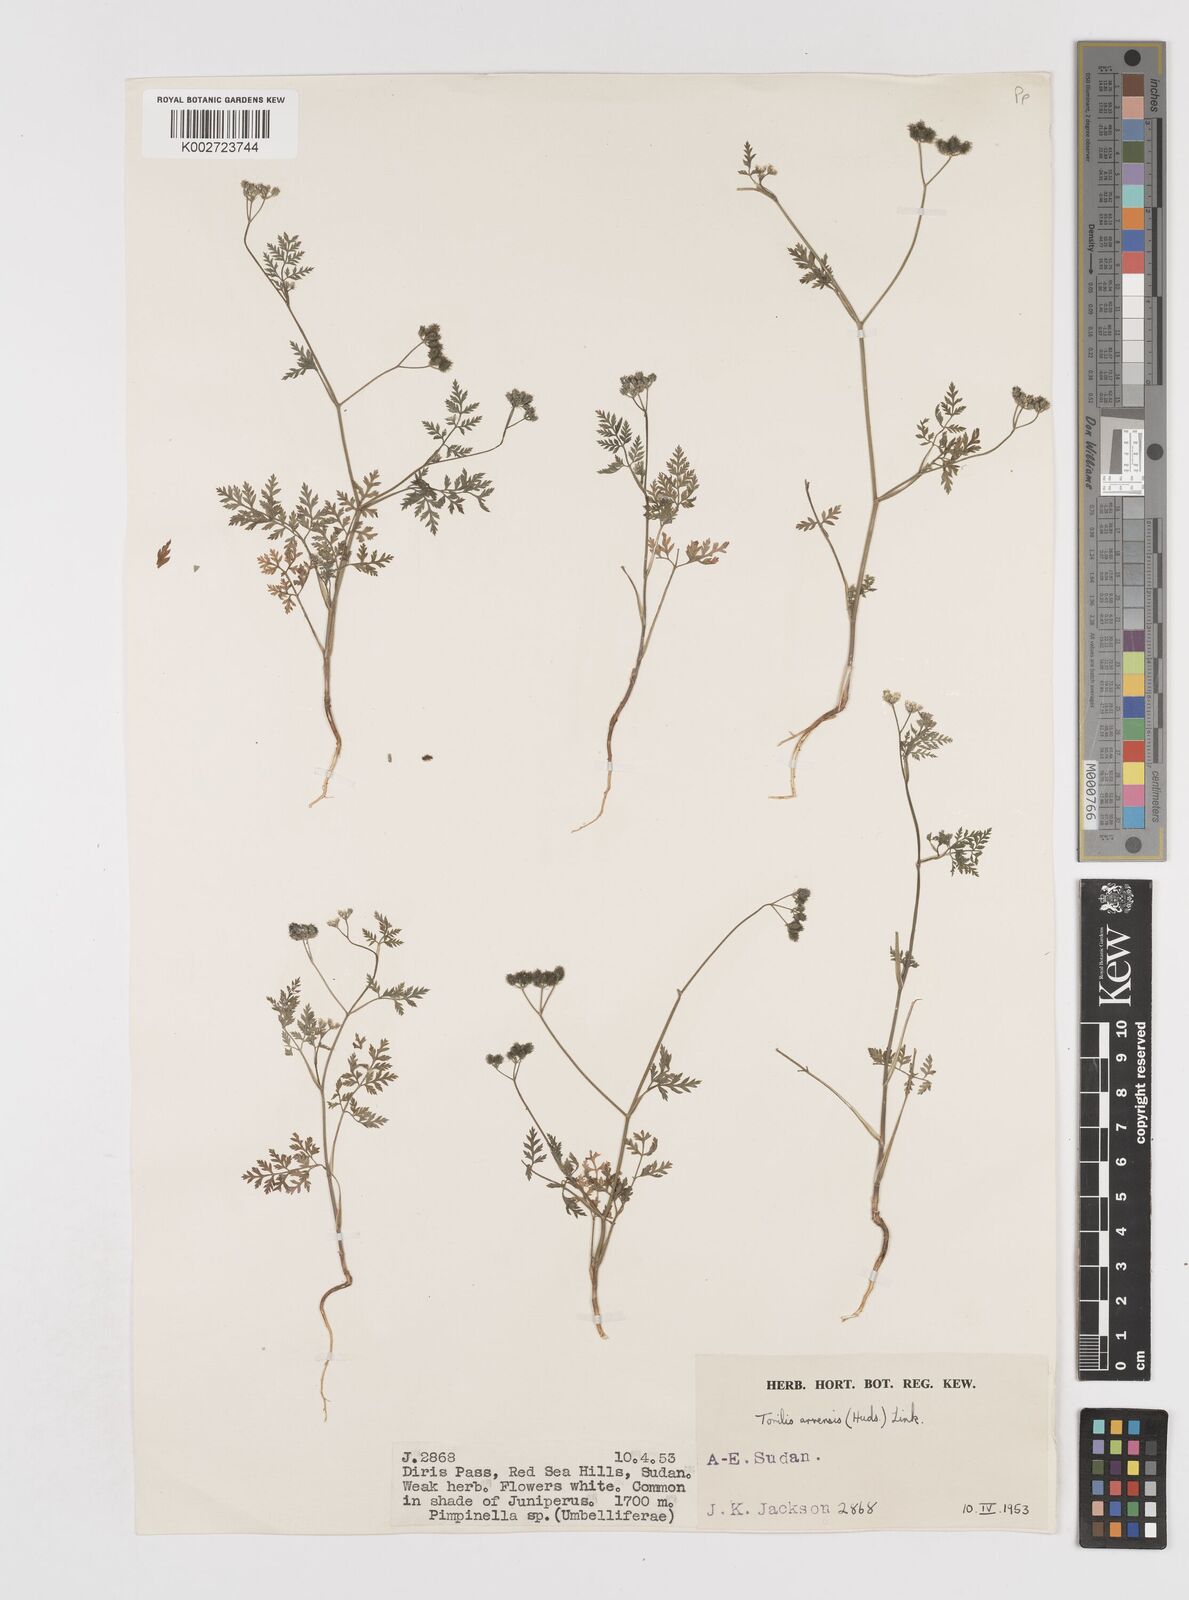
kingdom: Plantae
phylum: Tracheophyta
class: Magnoliopsida
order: Apiales
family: Apiaceae
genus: Torilis
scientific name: Torilis arvensis
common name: Spreading hedge-parsley
